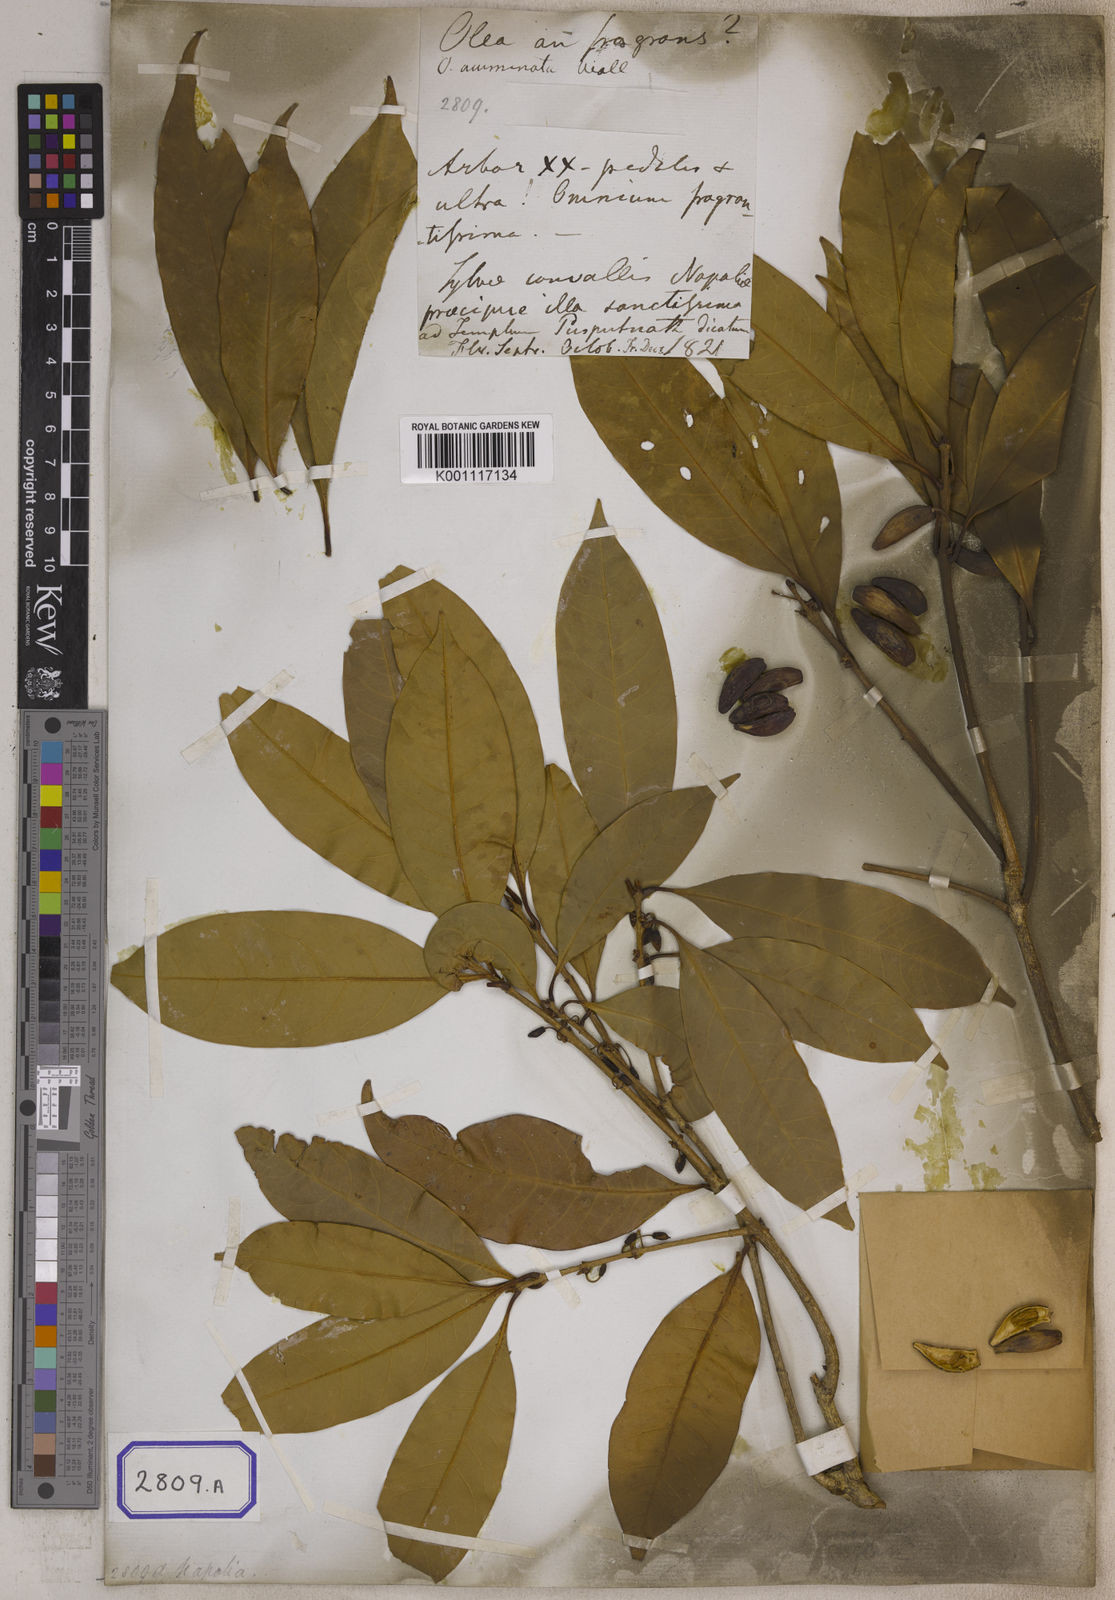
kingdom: Plantae
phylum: Tracheophyta
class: Magnoliopsida
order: Lamiales
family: Oleaceae
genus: Olea
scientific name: Olea
